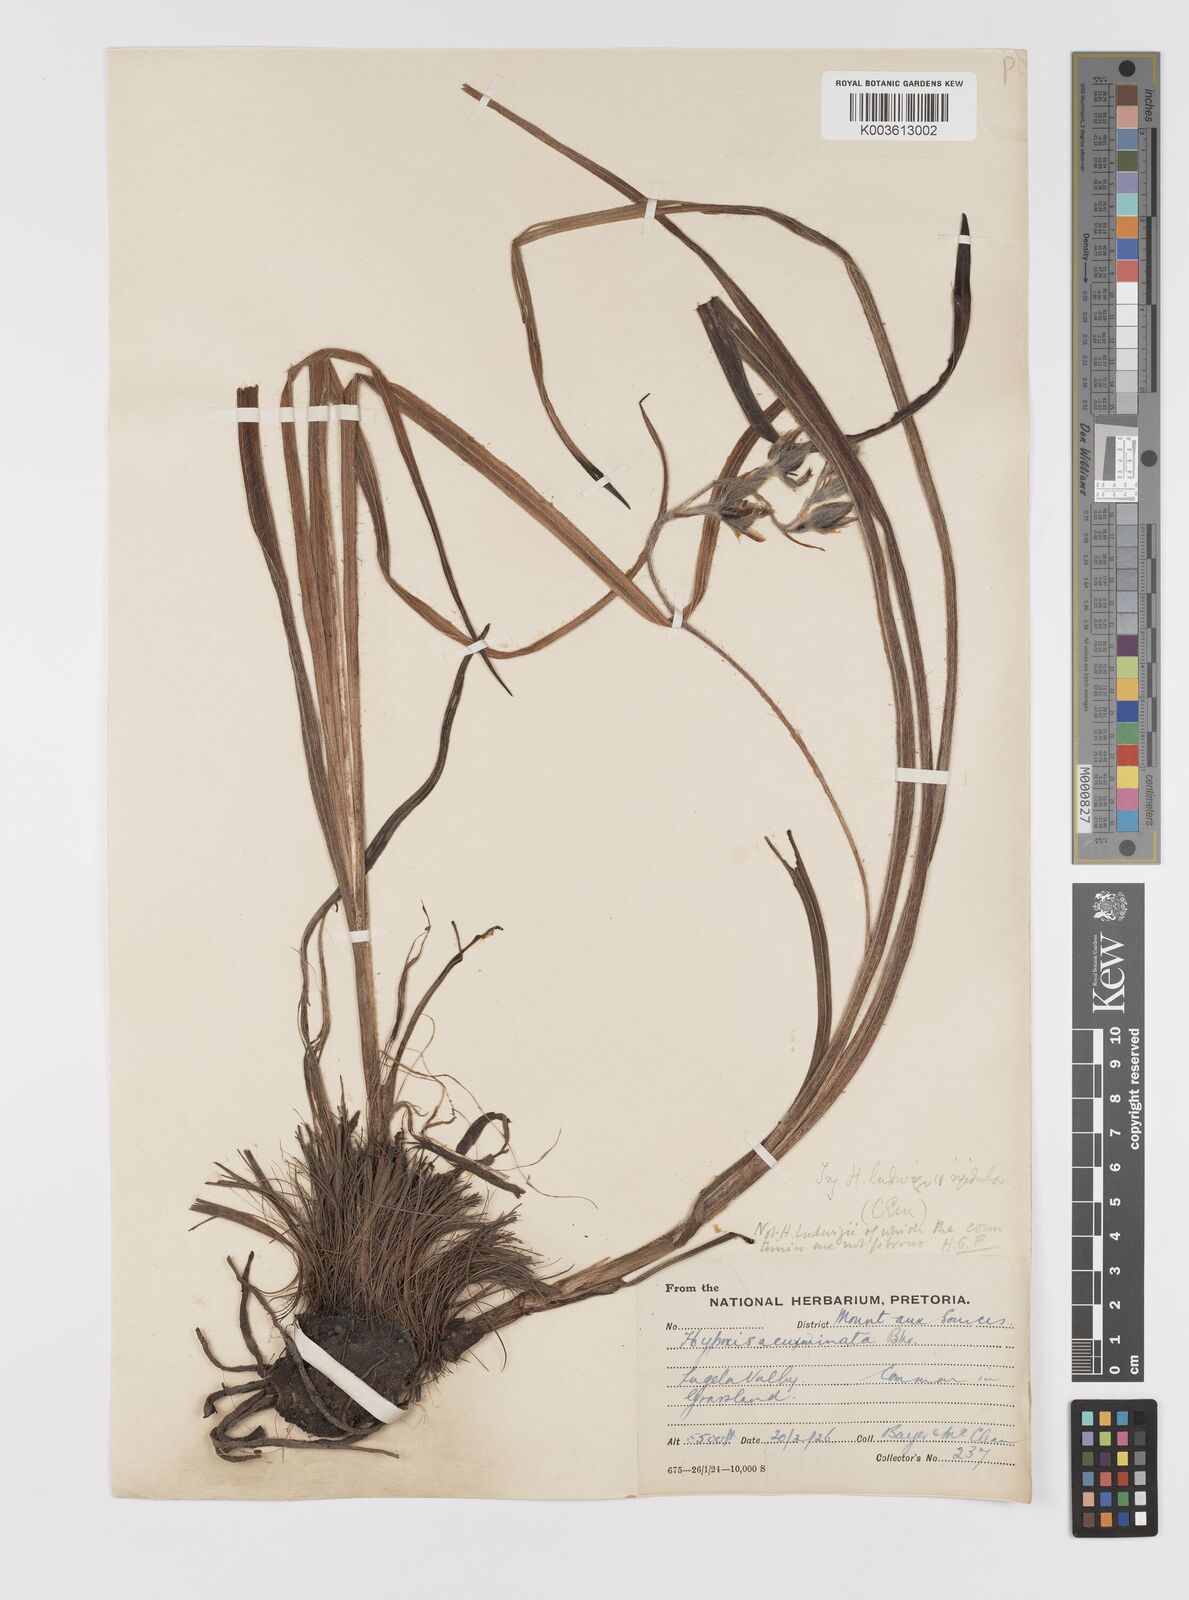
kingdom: Plantae
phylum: Tracheophyta
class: Liliopsida
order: Asparagales
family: Hypoxidaceae
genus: Hypoxis
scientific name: Hypoxis rigidula
